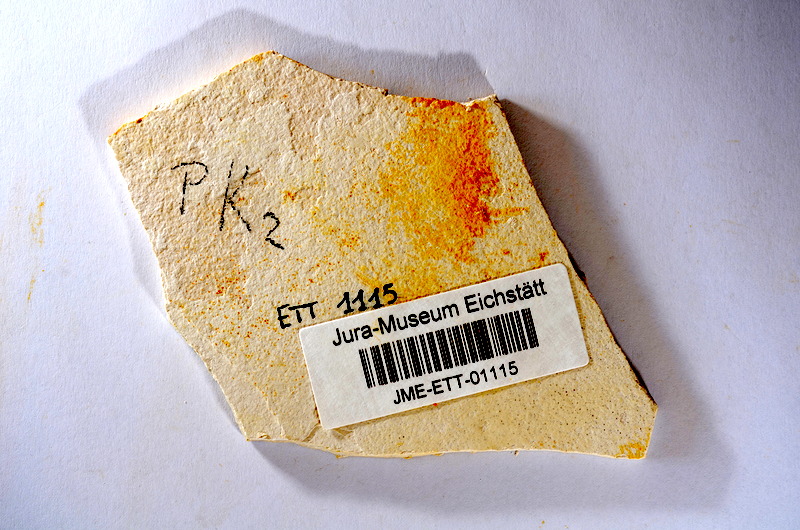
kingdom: Animalia
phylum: Chordata
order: Salmoniformes
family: Orthogonikleithridae
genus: Orthogonikleithrus
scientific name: Orthogonikleithrus hoelli
